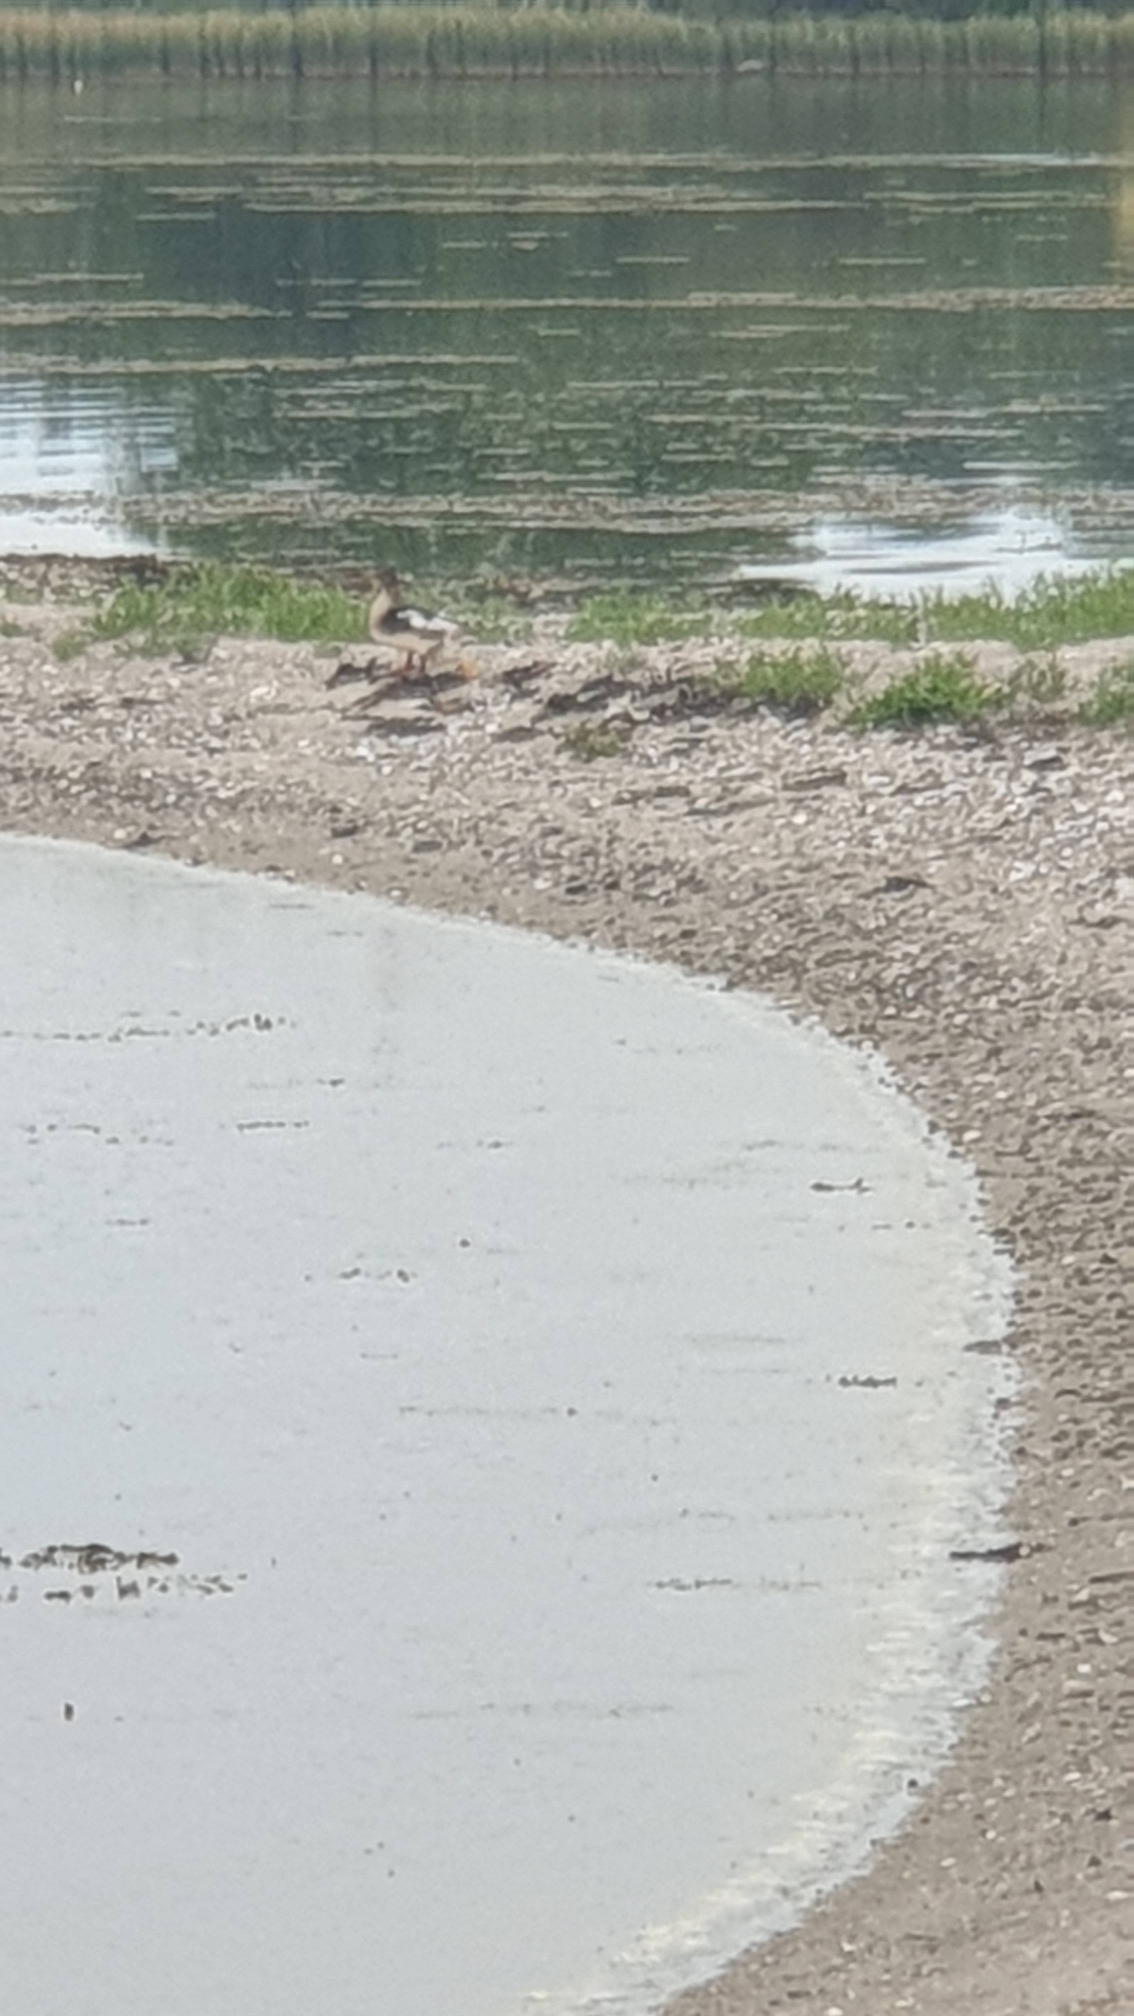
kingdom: Animalia
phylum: Chordata
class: Aves
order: Anseriformes
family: Anatidae
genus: Mergus
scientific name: Mergus serrator
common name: Toppet skallesluger
